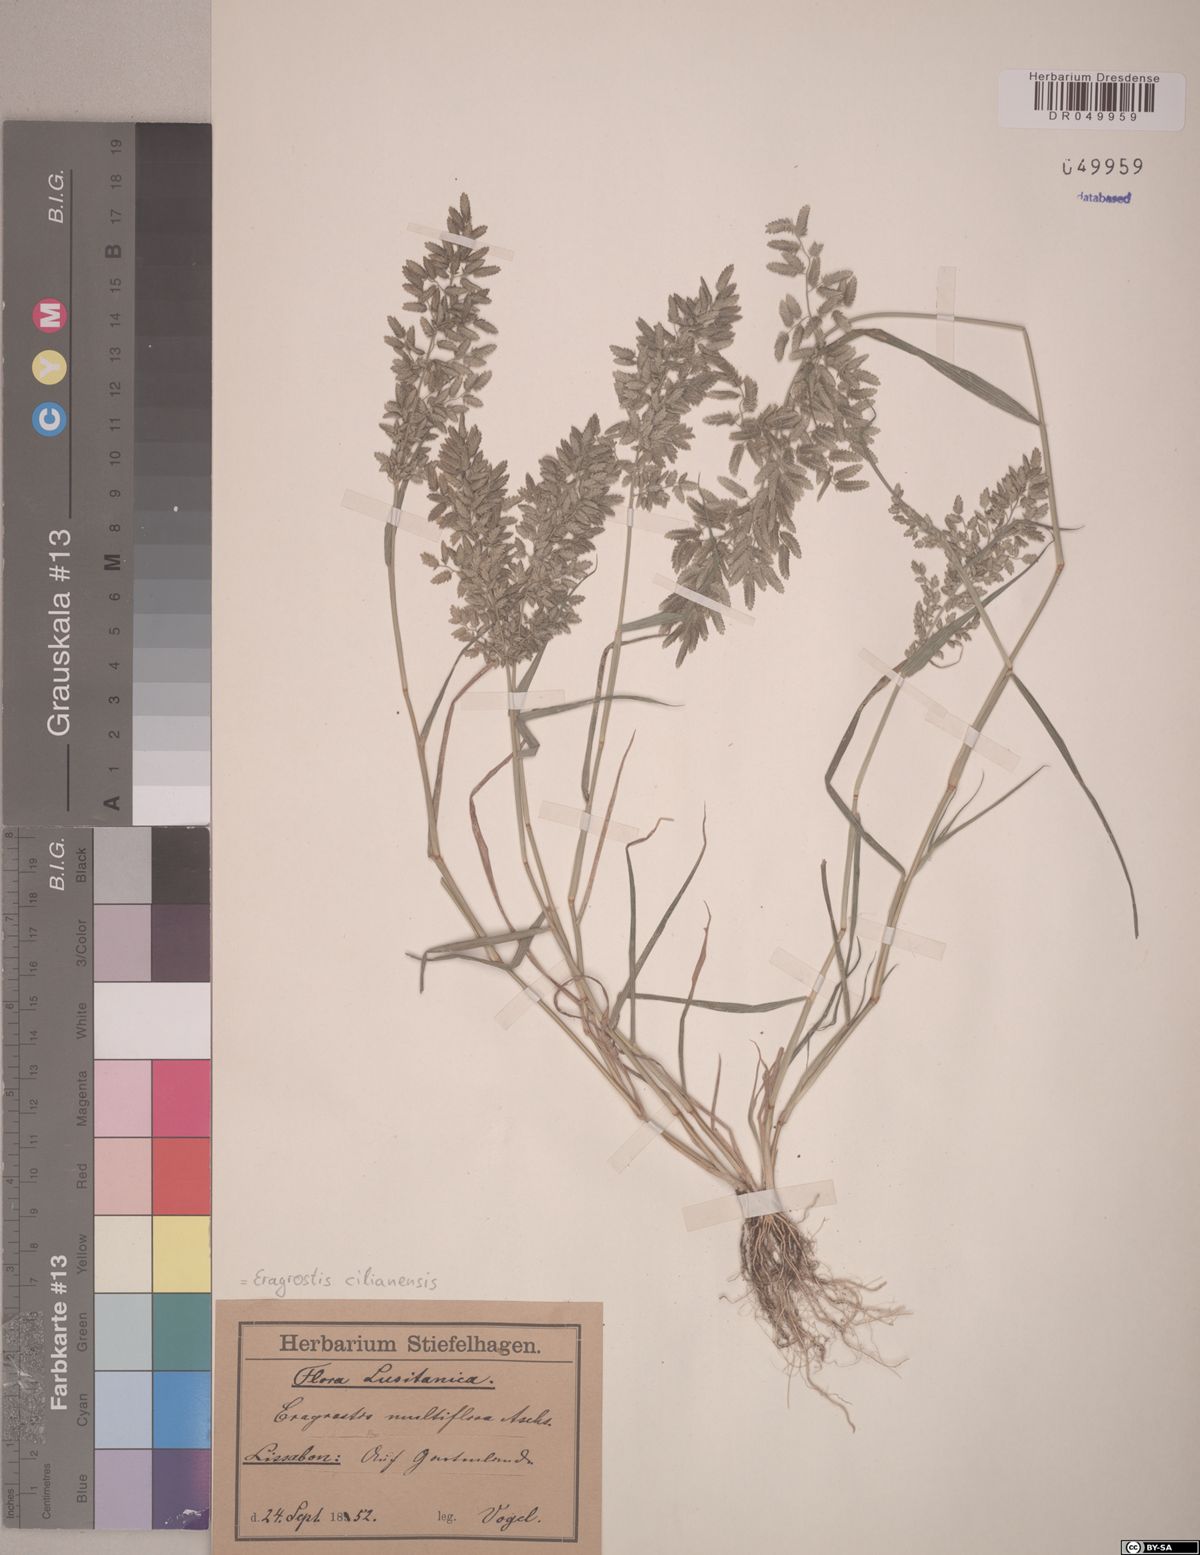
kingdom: Plantae
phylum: Tracheophyta
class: Liliopsida
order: Poales
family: Poaceae
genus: Eragrostis
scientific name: Eragrostis cilianensis
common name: Stinkgrass
